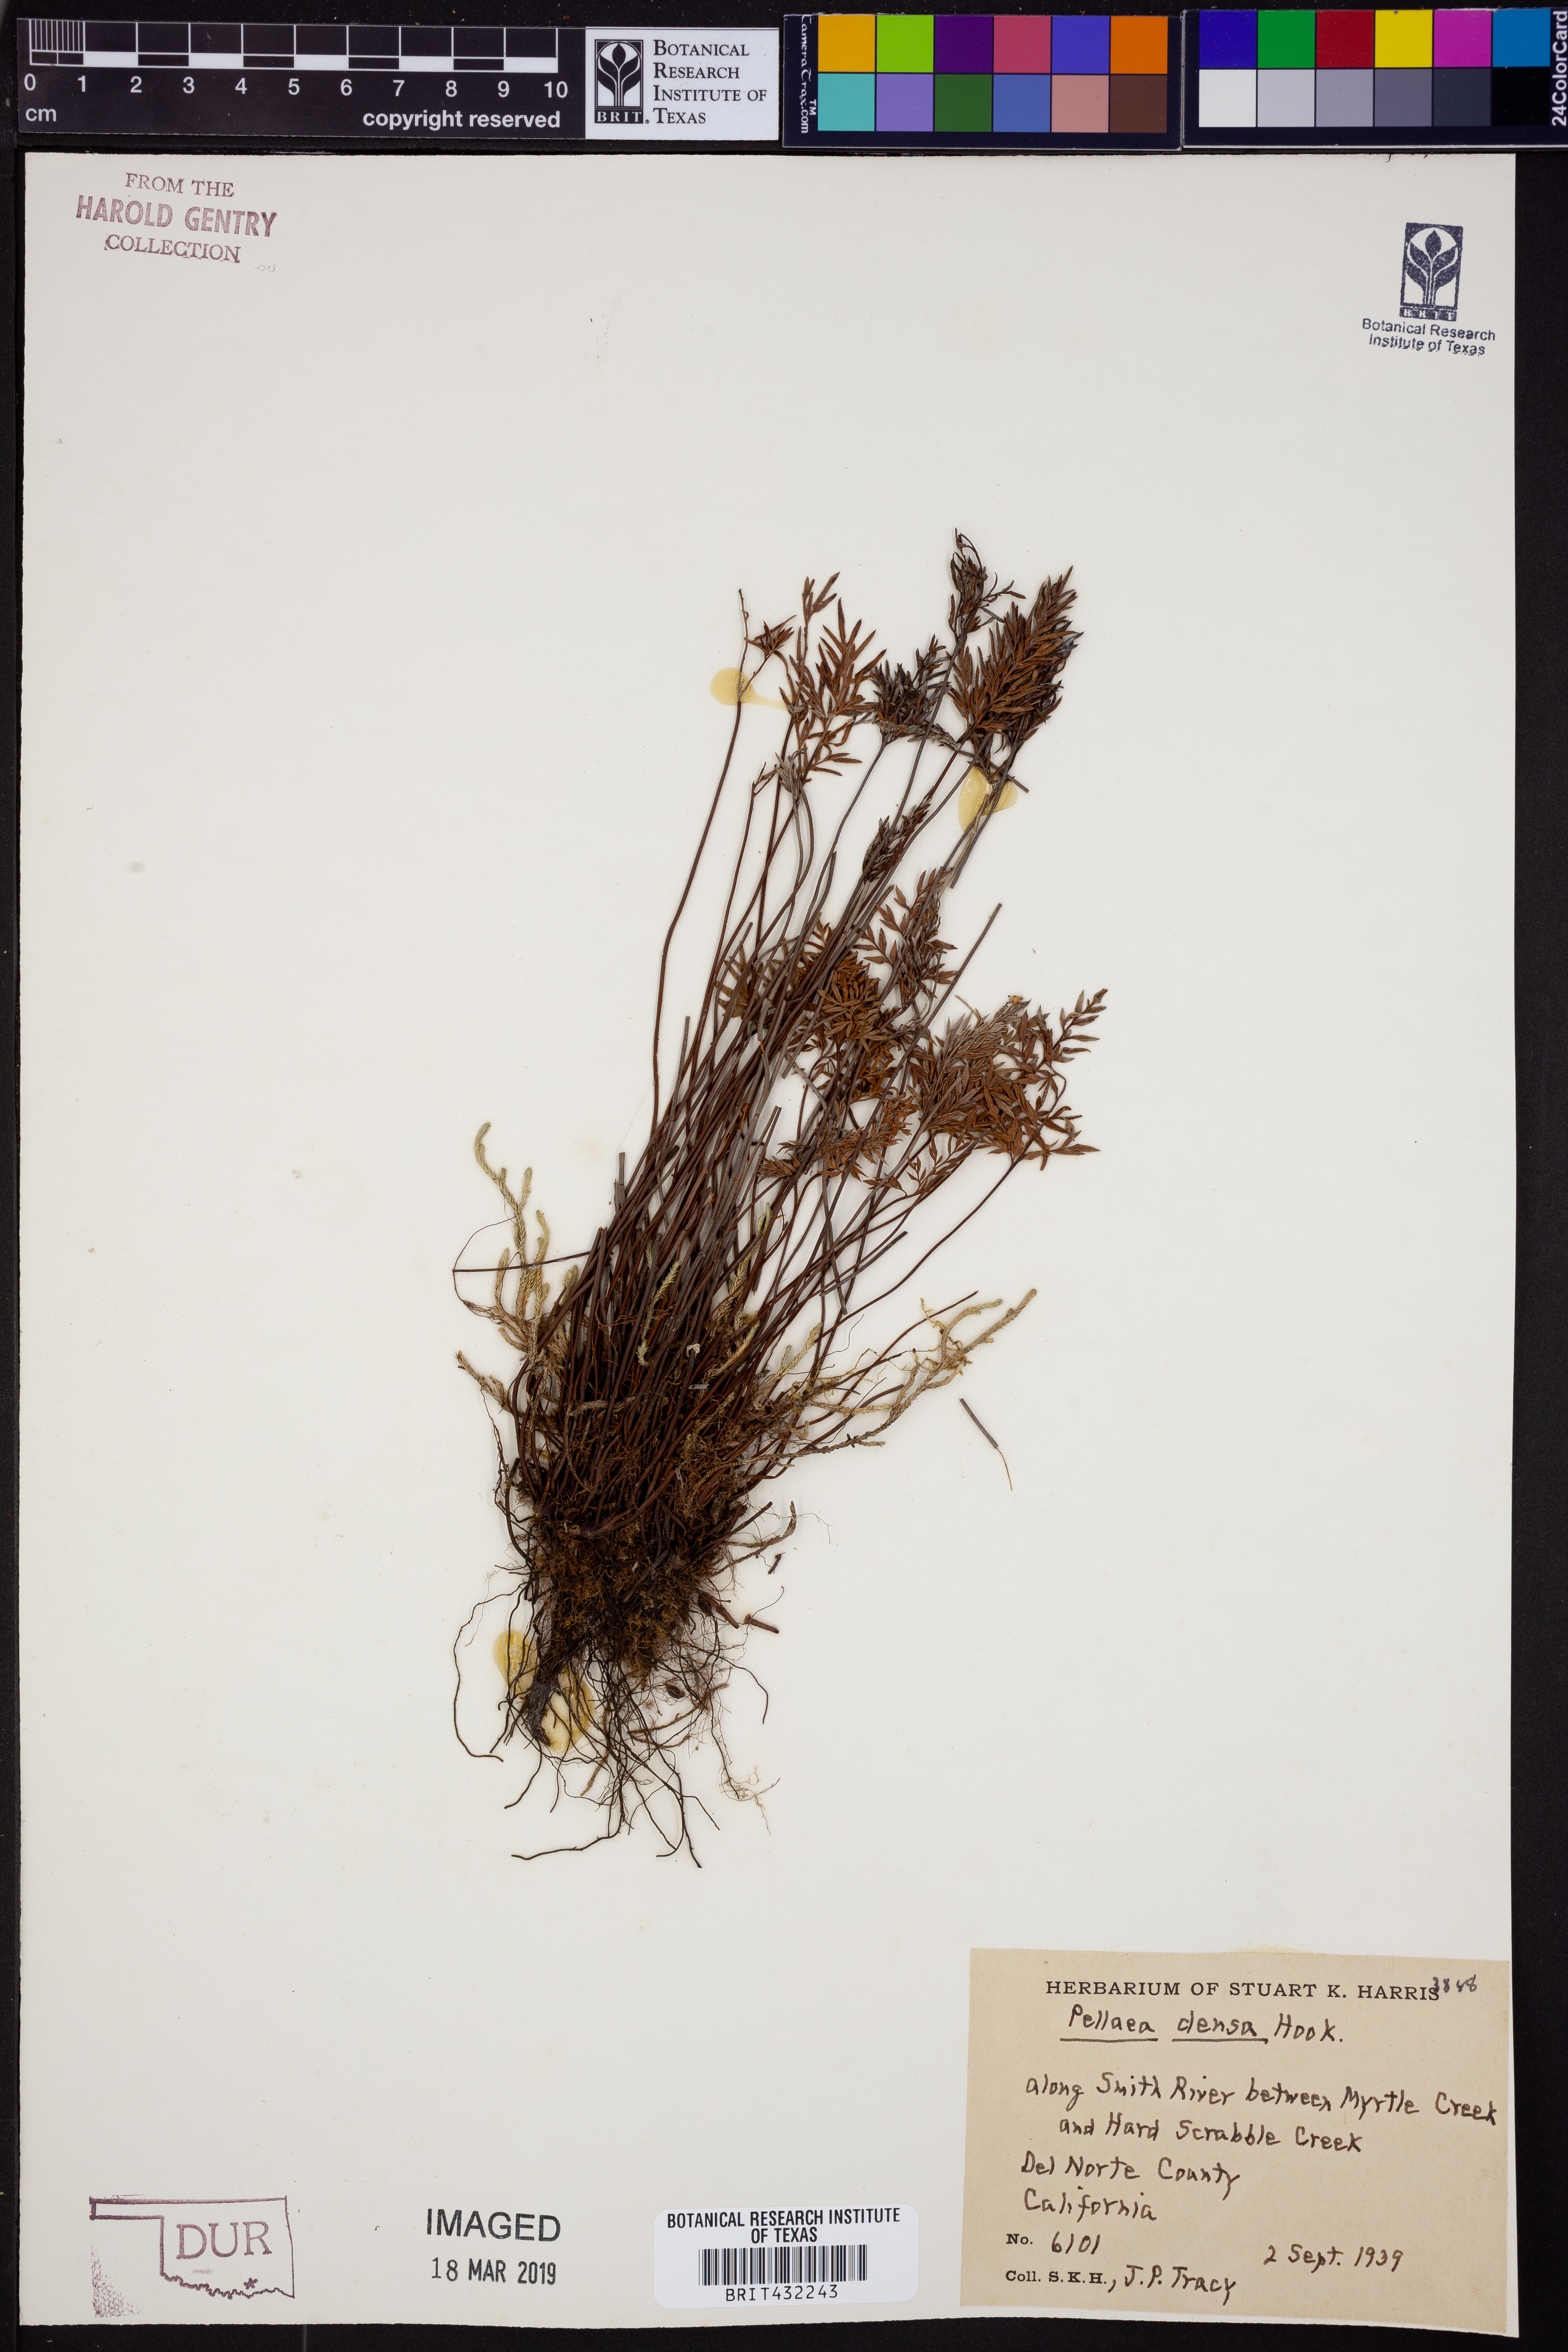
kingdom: Plantae
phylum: Tracheophyta
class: Polypodiopsida
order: Polypodiales
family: Pteridaceae
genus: Aspidotis
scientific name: Aspidotis densa
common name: Indian's dream
